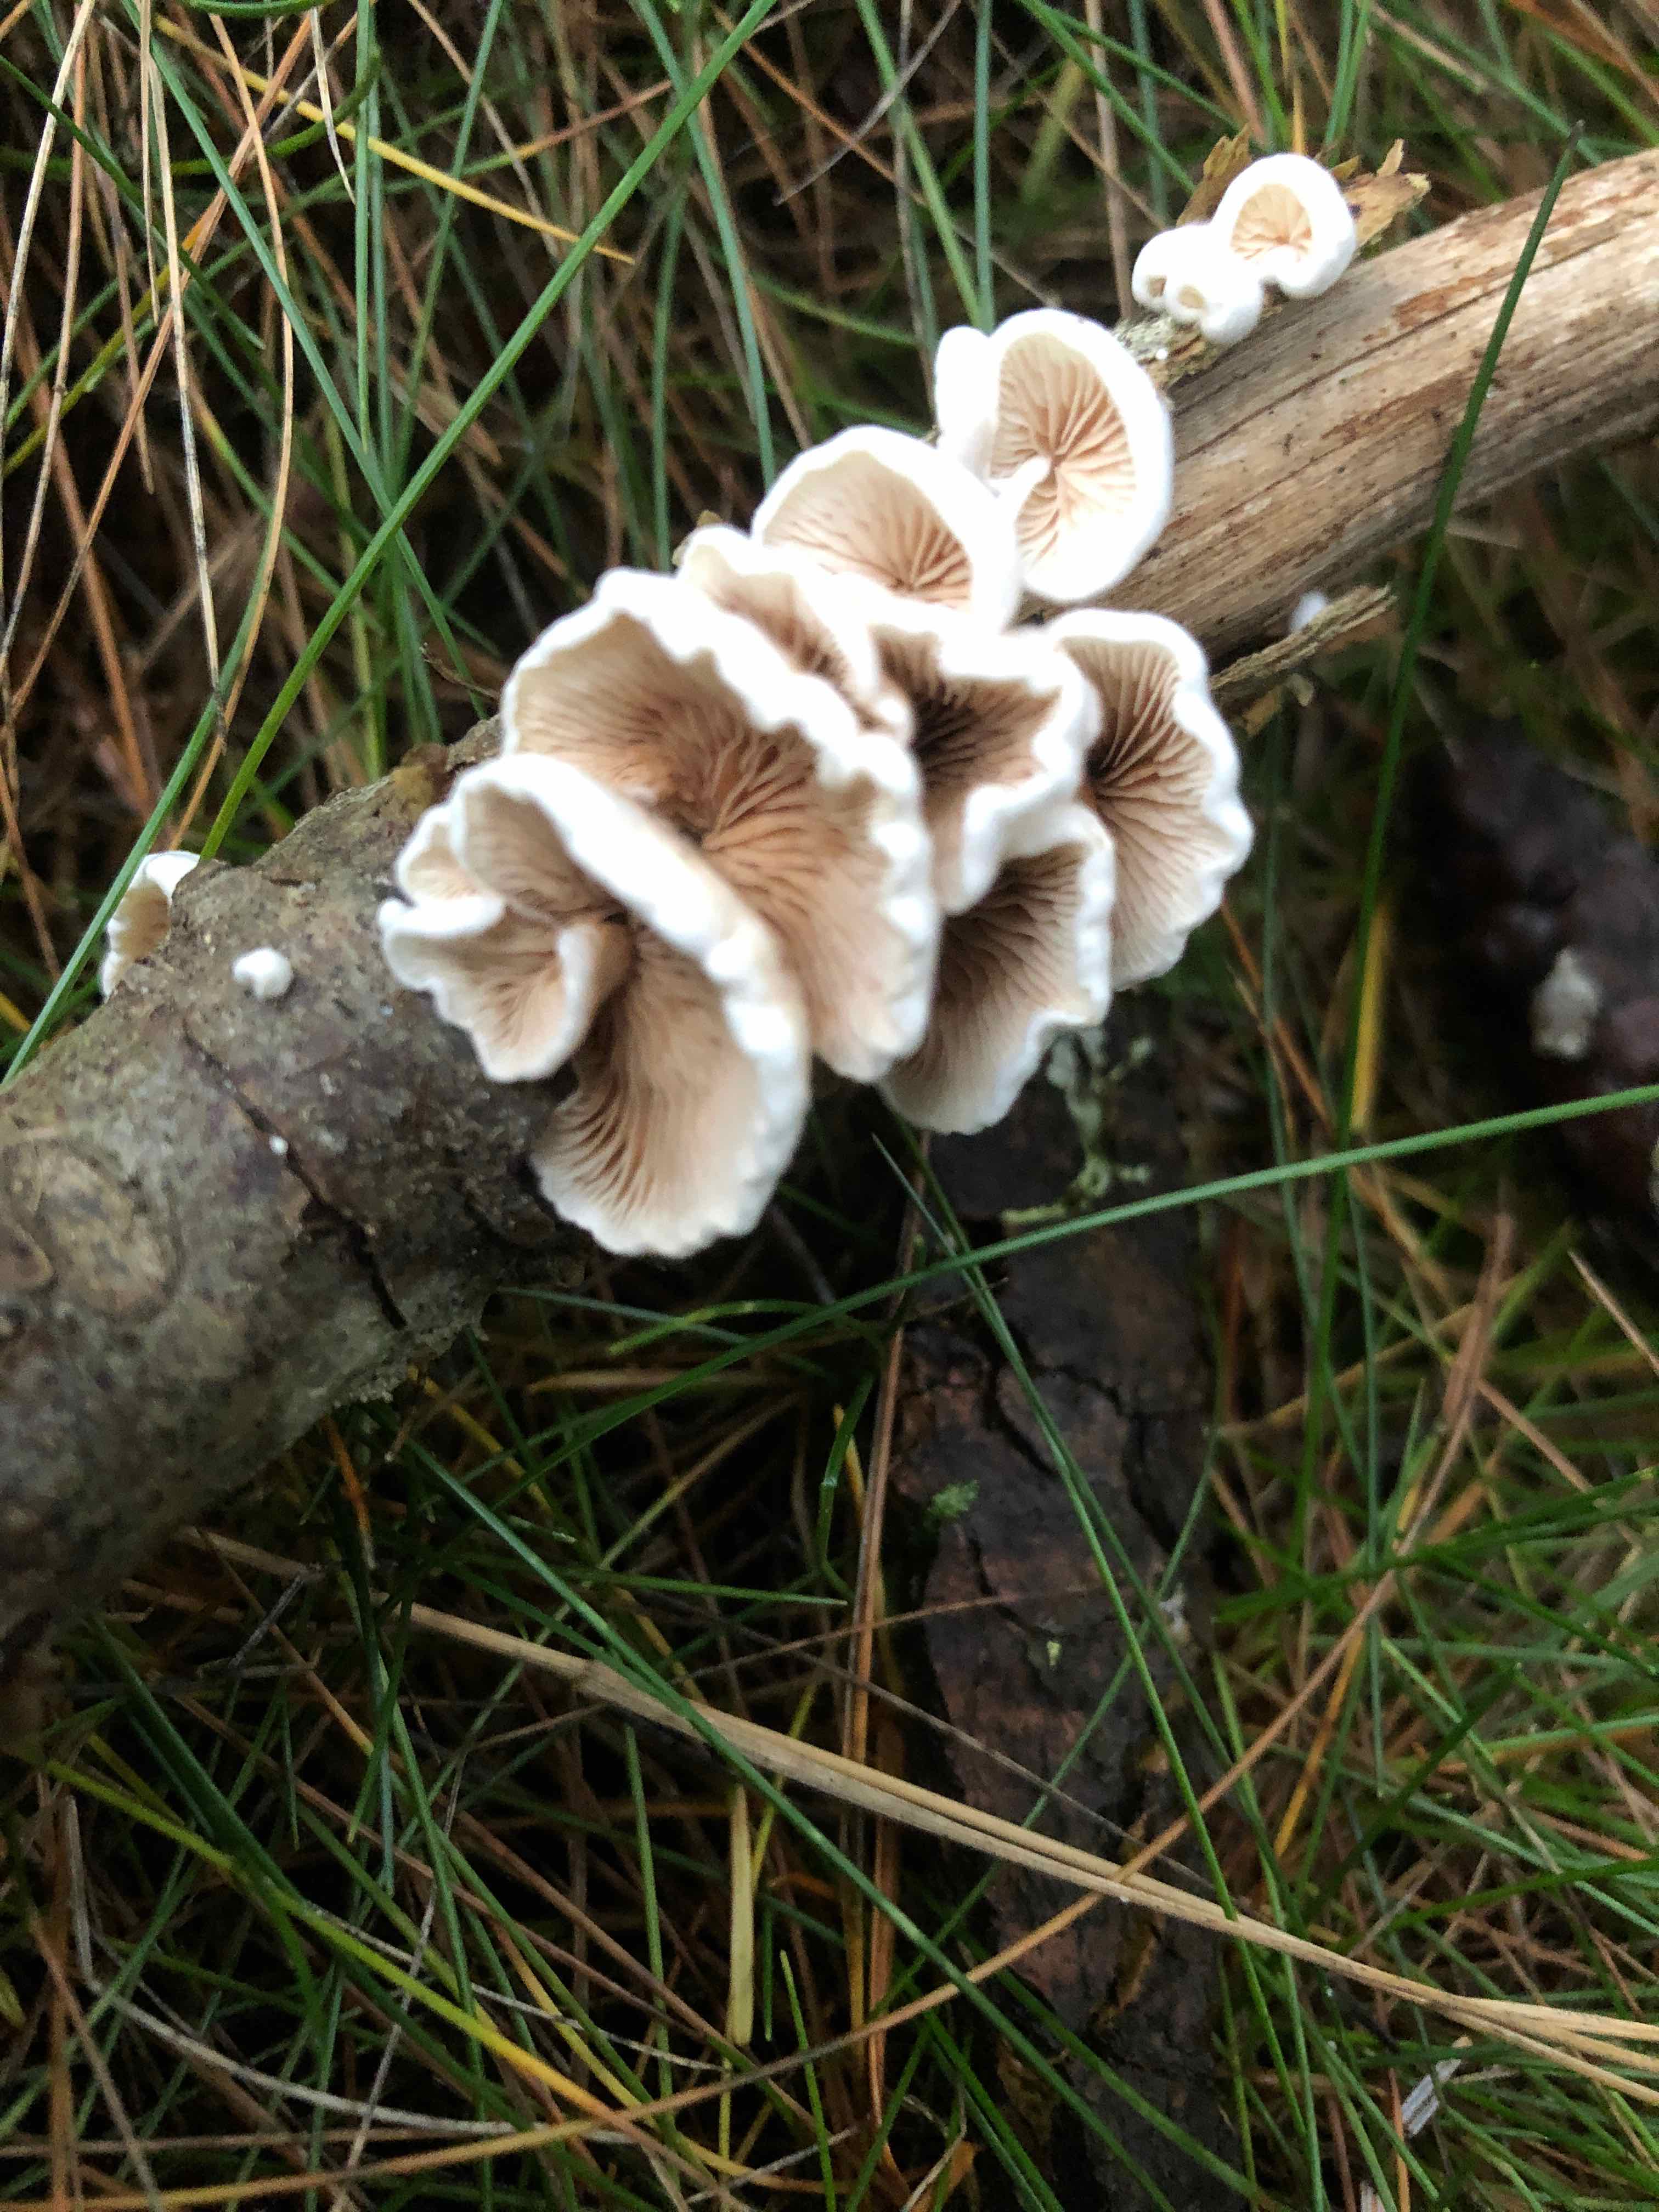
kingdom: Fungi
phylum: Basidiomycota
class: Agaricomycetes
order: Agaricales
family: Crepidotaceae
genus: Crepidotus
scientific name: Crepidotus
